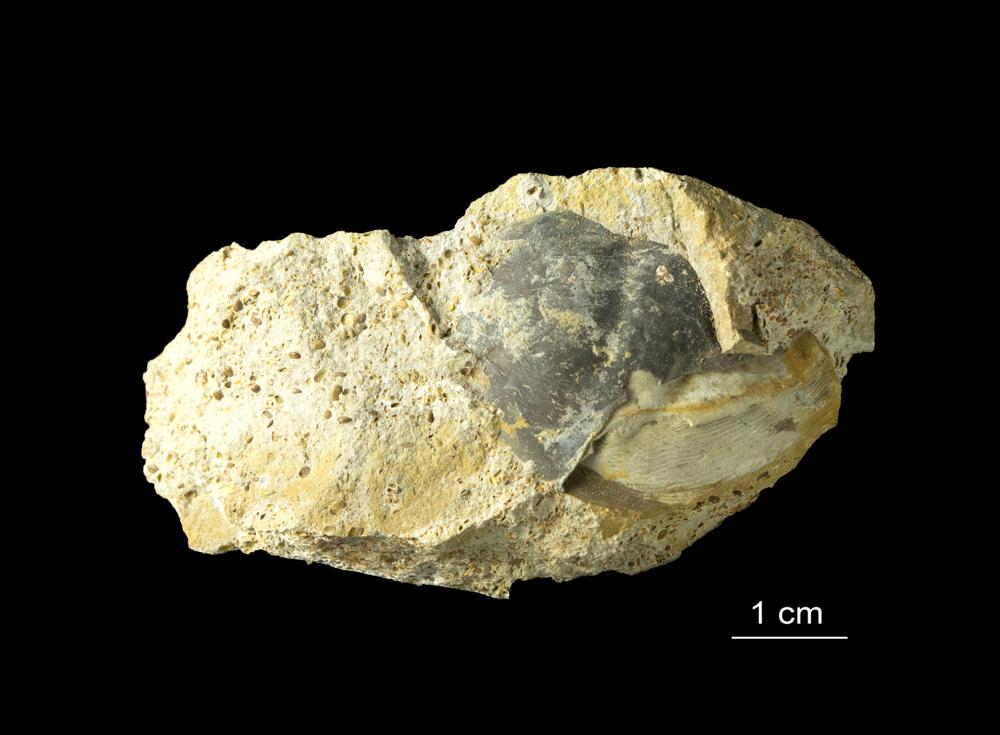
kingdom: Animalia
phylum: Arthropoda
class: Trilobita
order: Asaphida
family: Asaphidae
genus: Asaphus
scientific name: Asaphus kowalewskii
